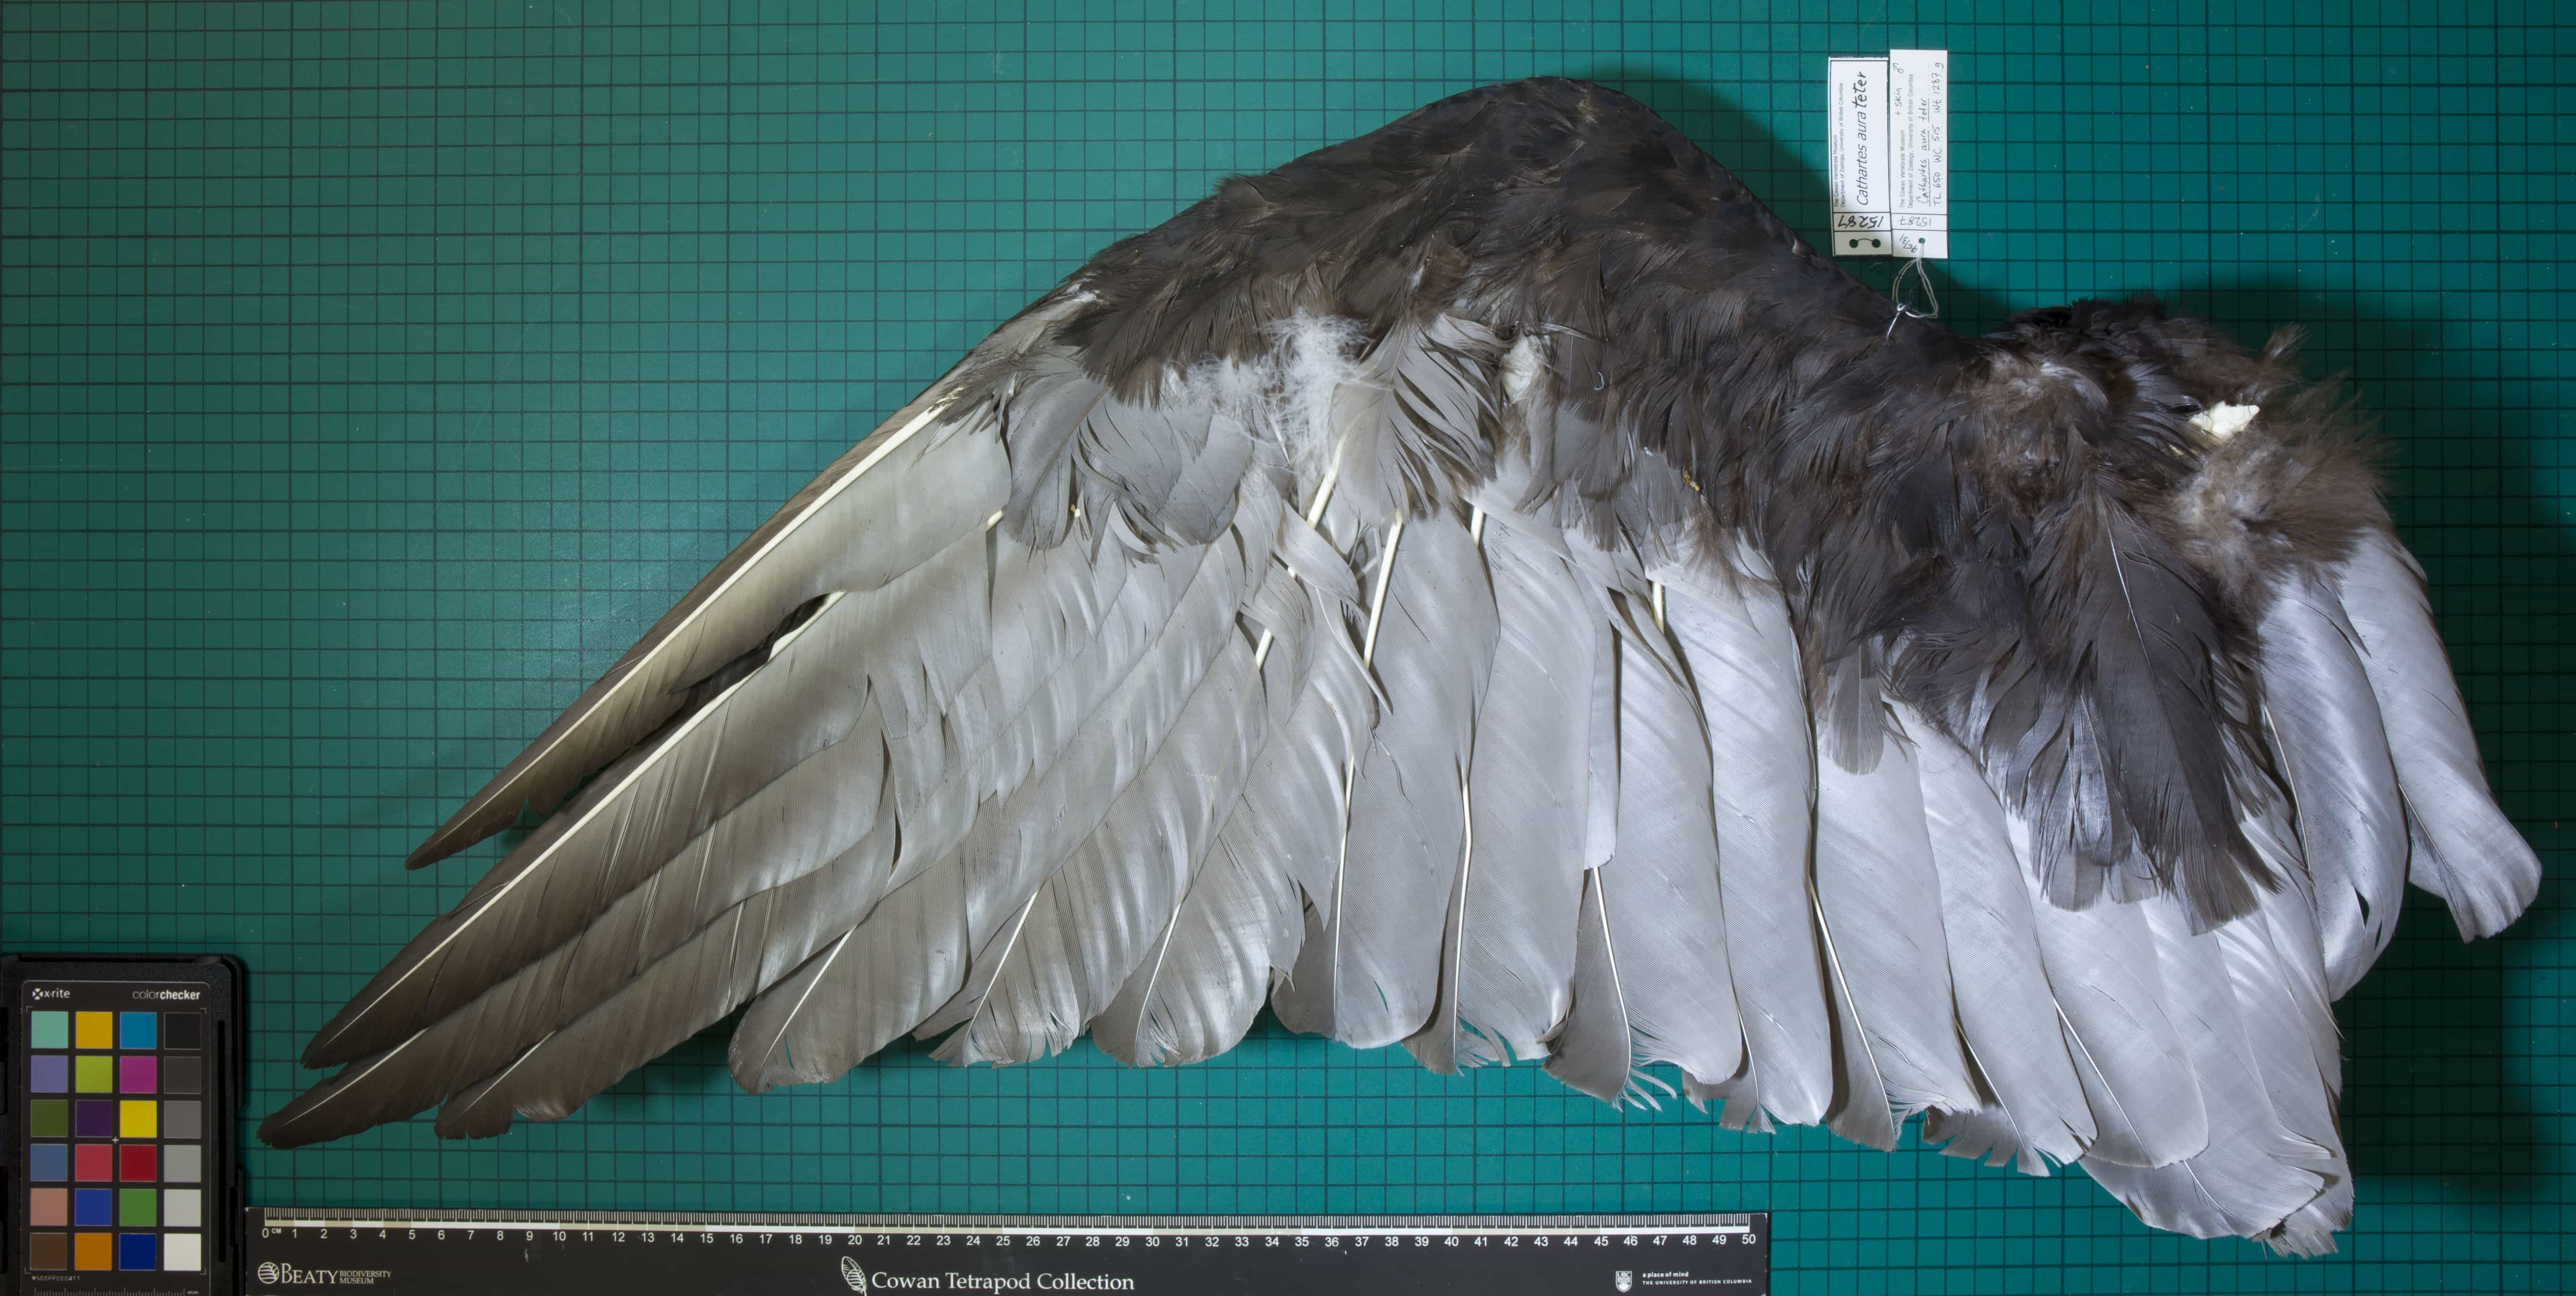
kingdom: Animalia
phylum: Chordata
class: Aves
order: Accipitriformes
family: Cathartidae
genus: Cathartes
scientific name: Cathartes aura
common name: Turkey Vulture
